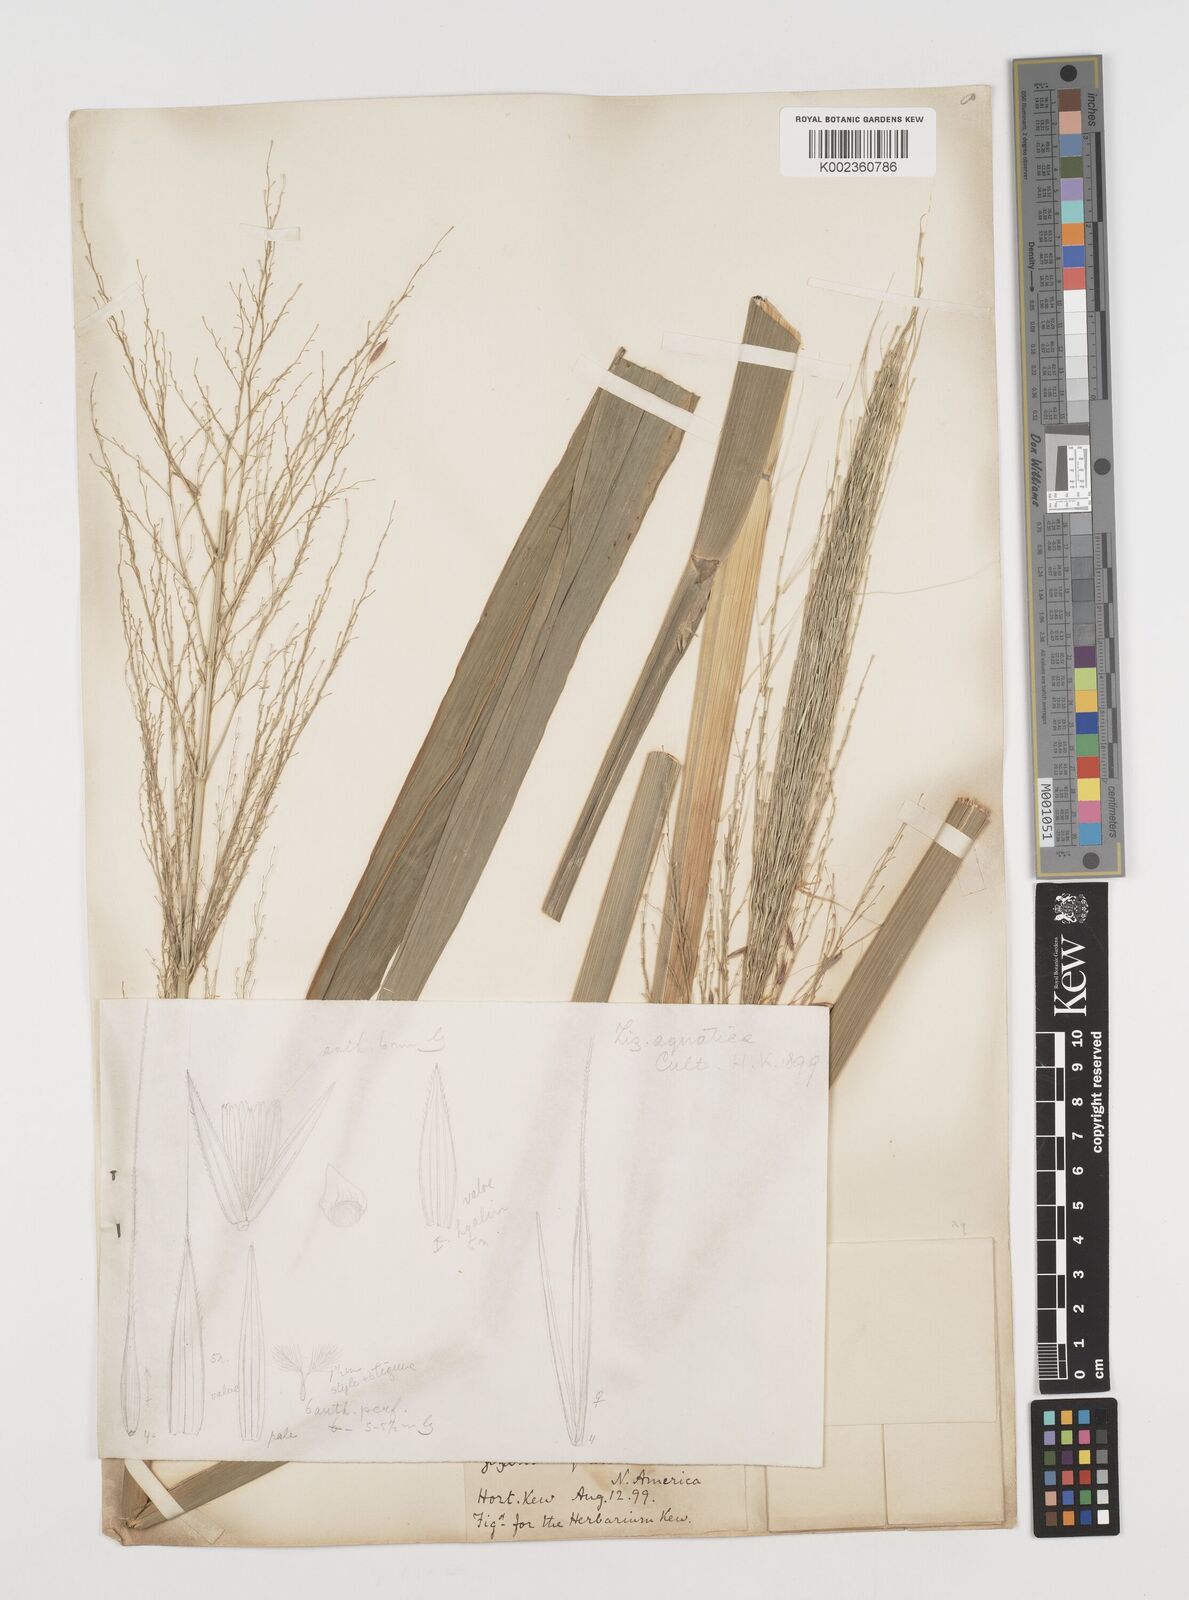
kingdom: Plantae
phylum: Tracheophyta
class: Liliopsida
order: Poales
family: Poaceae
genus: Zizania
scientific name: Zizania aquatica
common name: Annual wildrice
